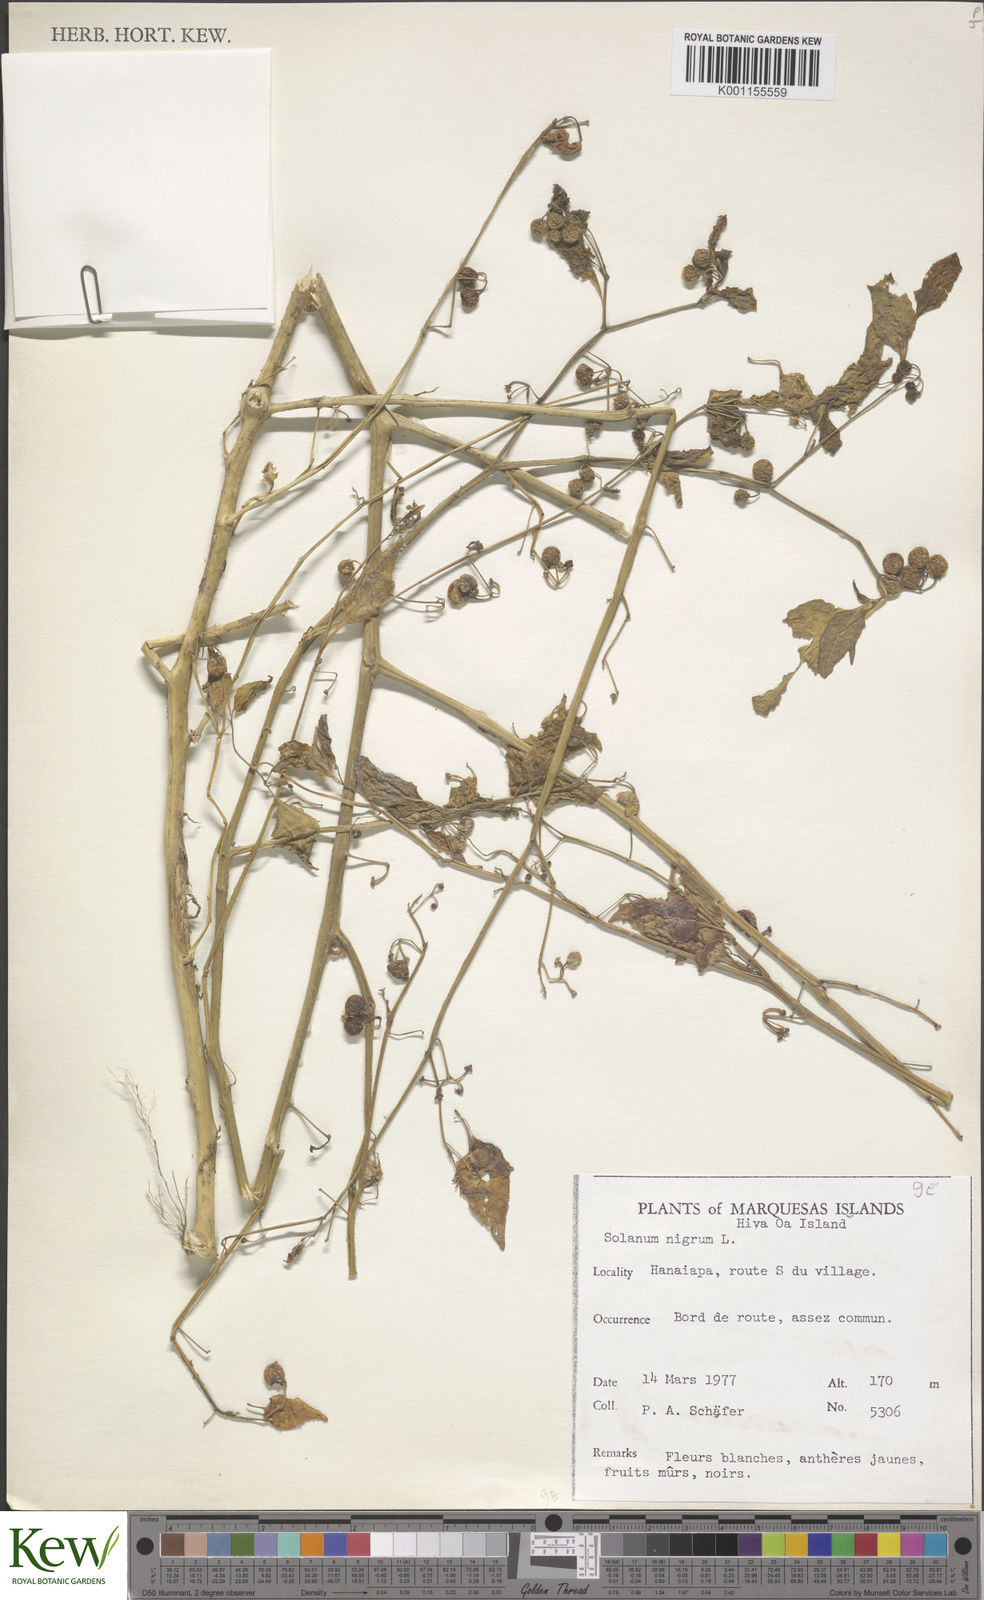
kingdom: Plantae
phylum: Tracheophyta
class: Magnoliopsida
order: Solanales
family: Solanaceae
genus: Solanum
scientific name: Solanum americanum
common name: American black nightshade
